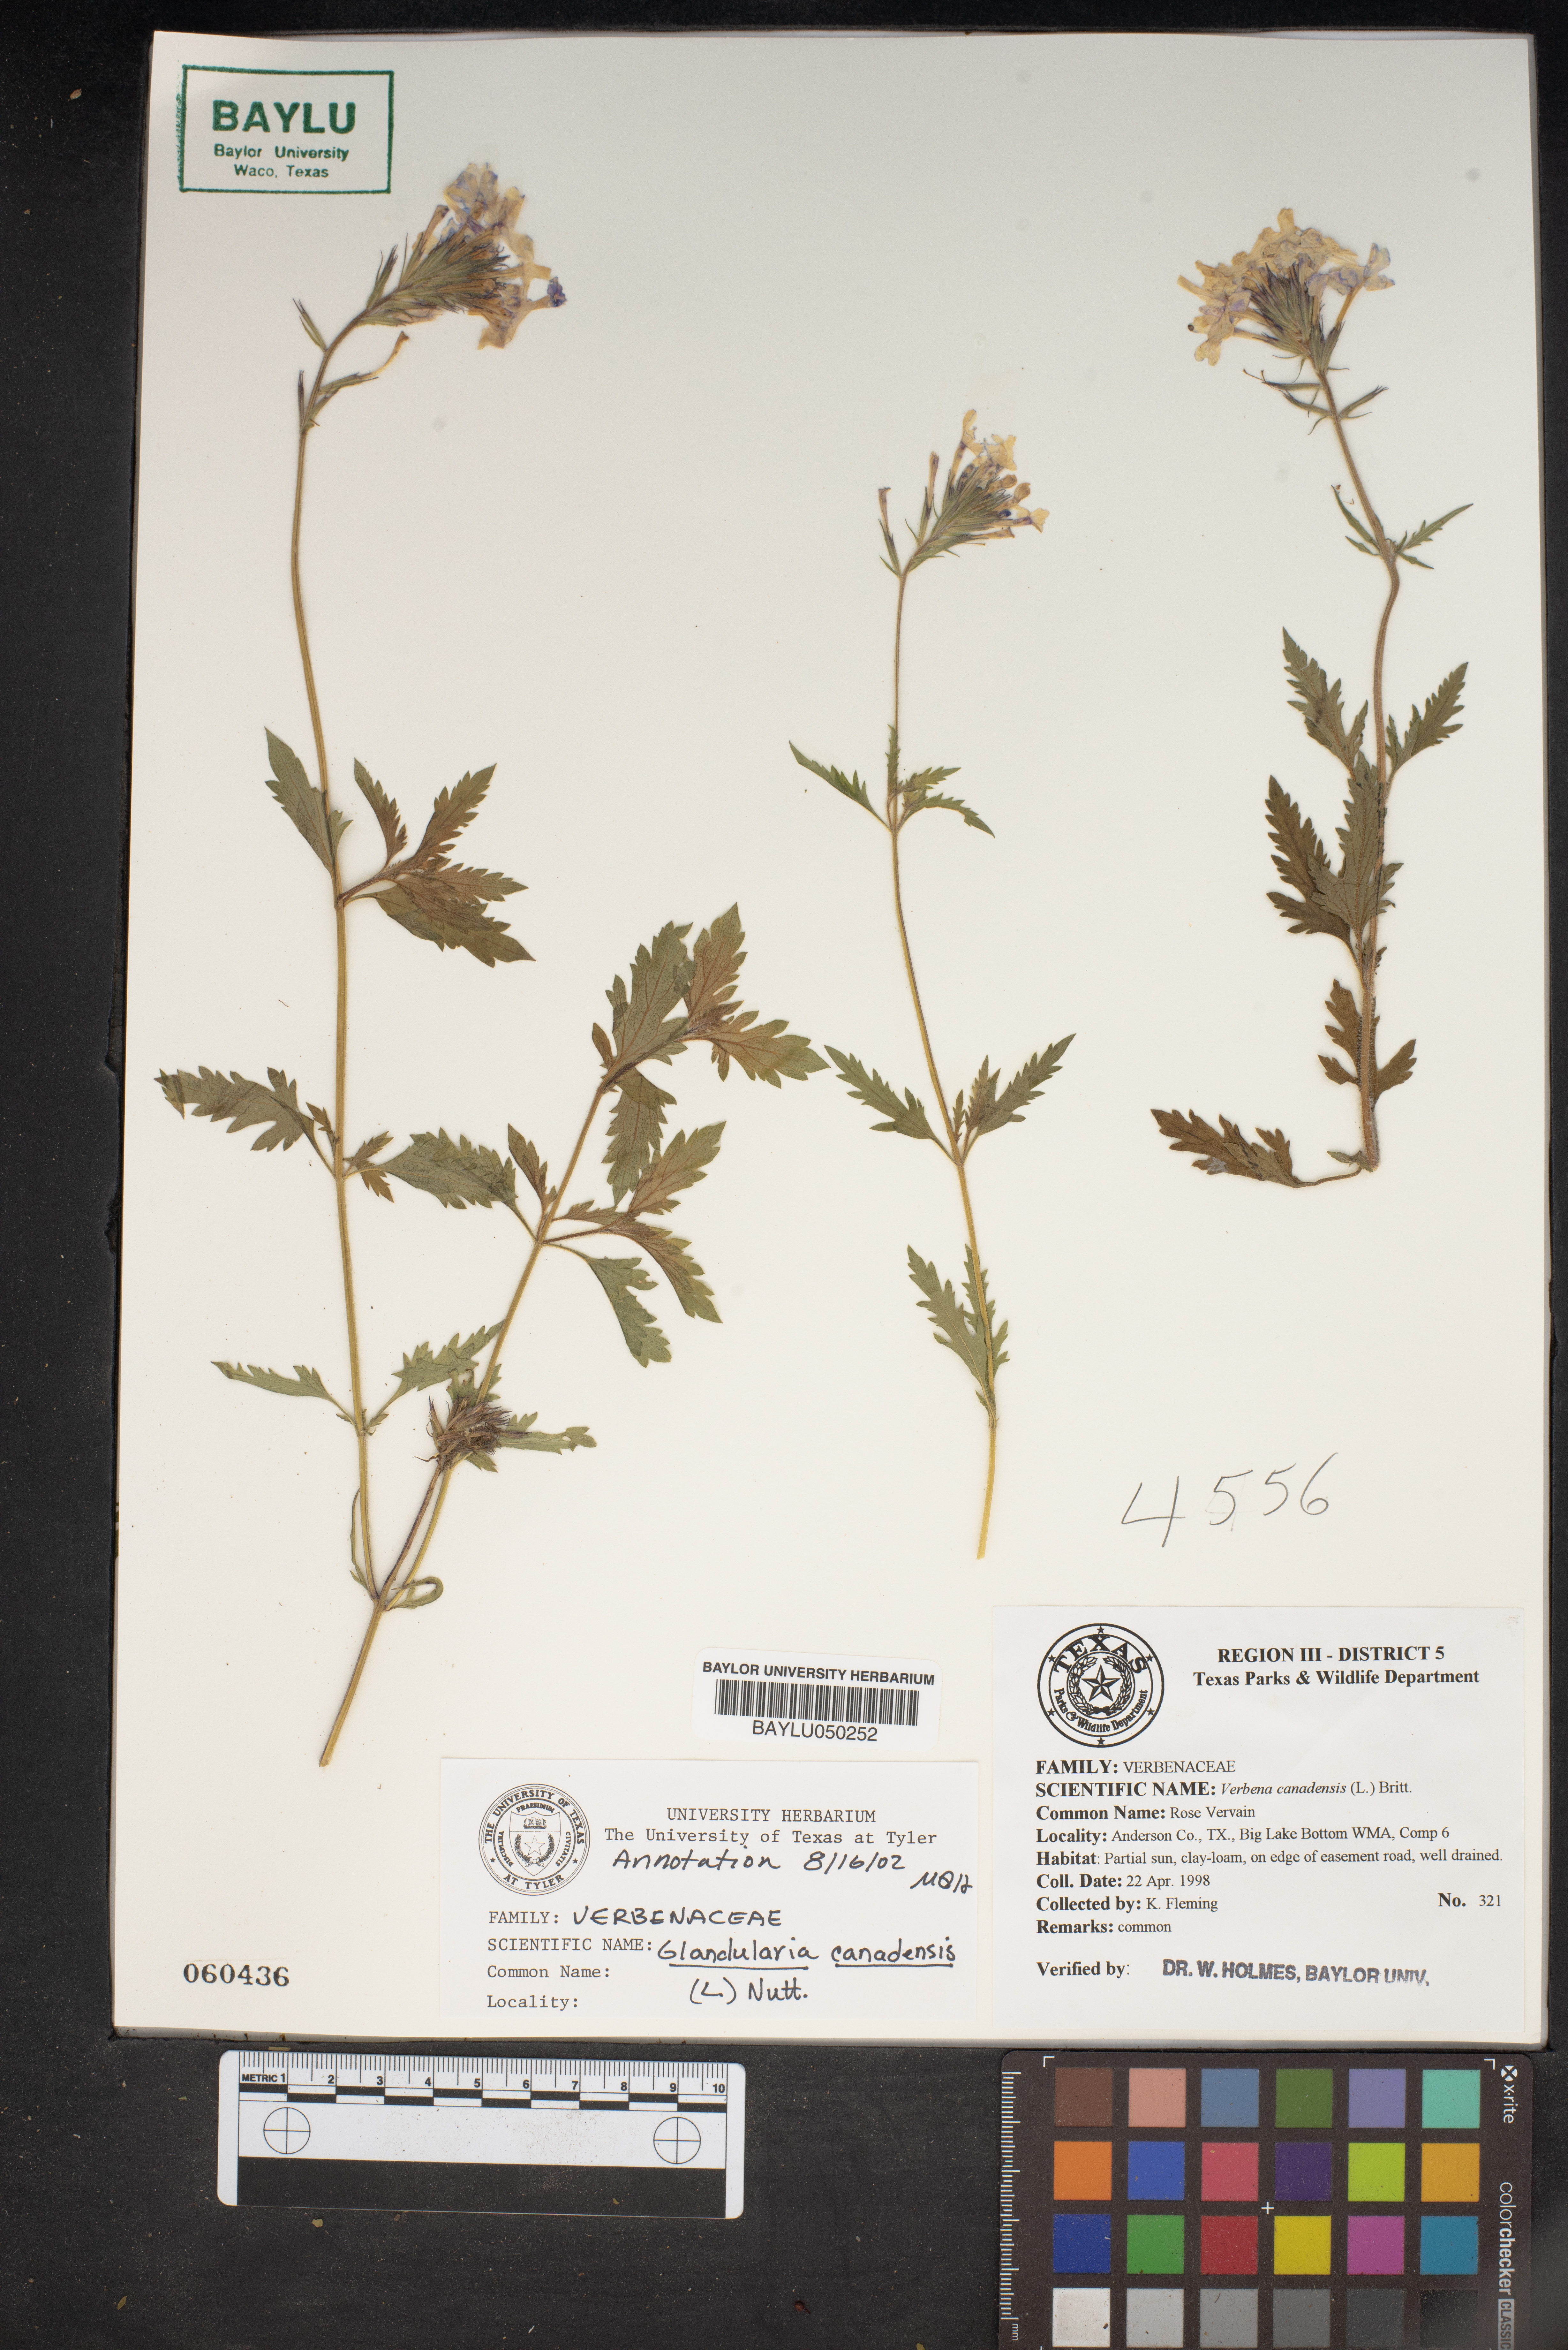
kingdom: Plantae
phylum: Tracheophyta
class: Magnoliopsida
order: Lamiales
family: Verbenaceae
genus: Verbena
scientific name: Verbena canadensis
